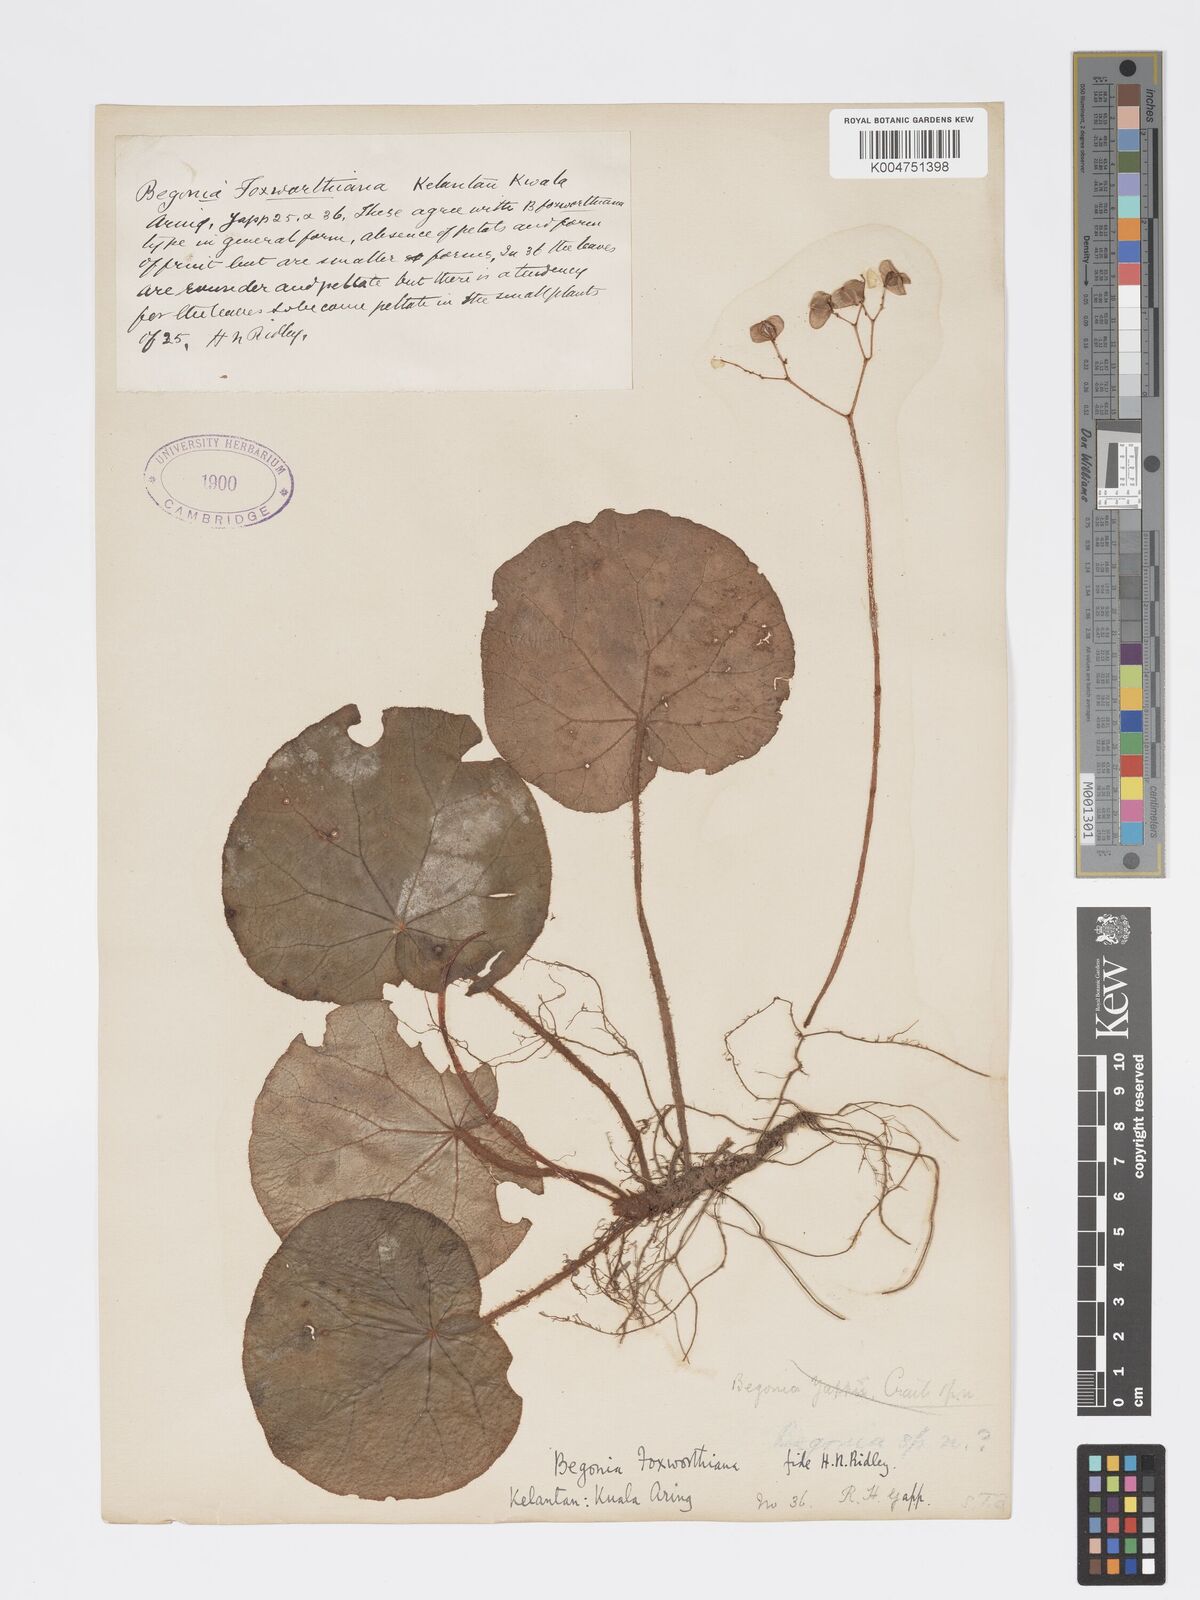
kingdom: Plantae
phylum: Tracheophyta
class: Magnoliopsida
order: Cucurbitales
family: Begoniaceae
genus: Begonia
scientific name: Begonia foxworthyi
